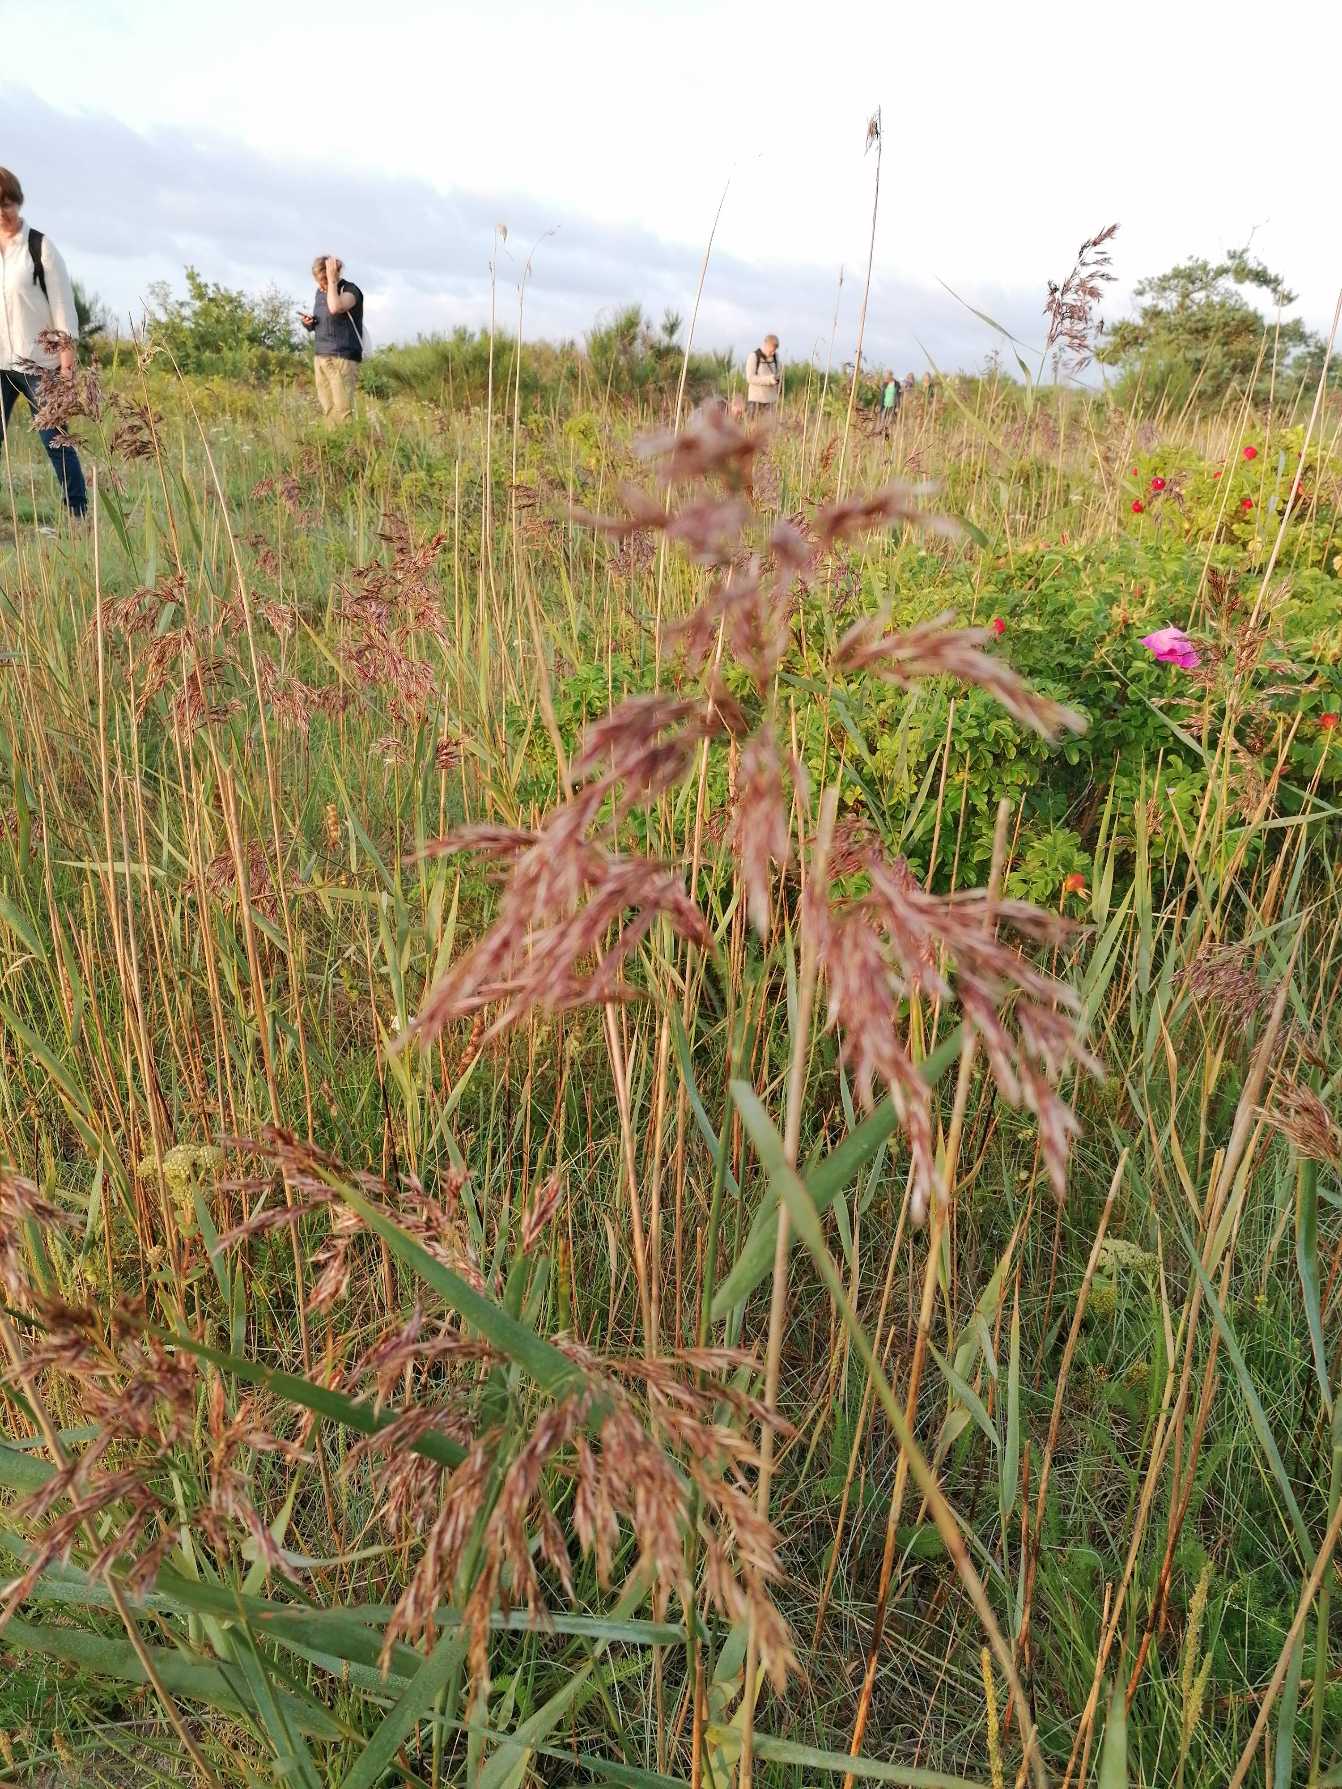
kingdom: Plantae
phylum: Tracheophyta
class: Liliopsida
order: Poales
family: Poaceae
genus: Phragmites
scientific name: Phragmites australis
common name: Tagrør
